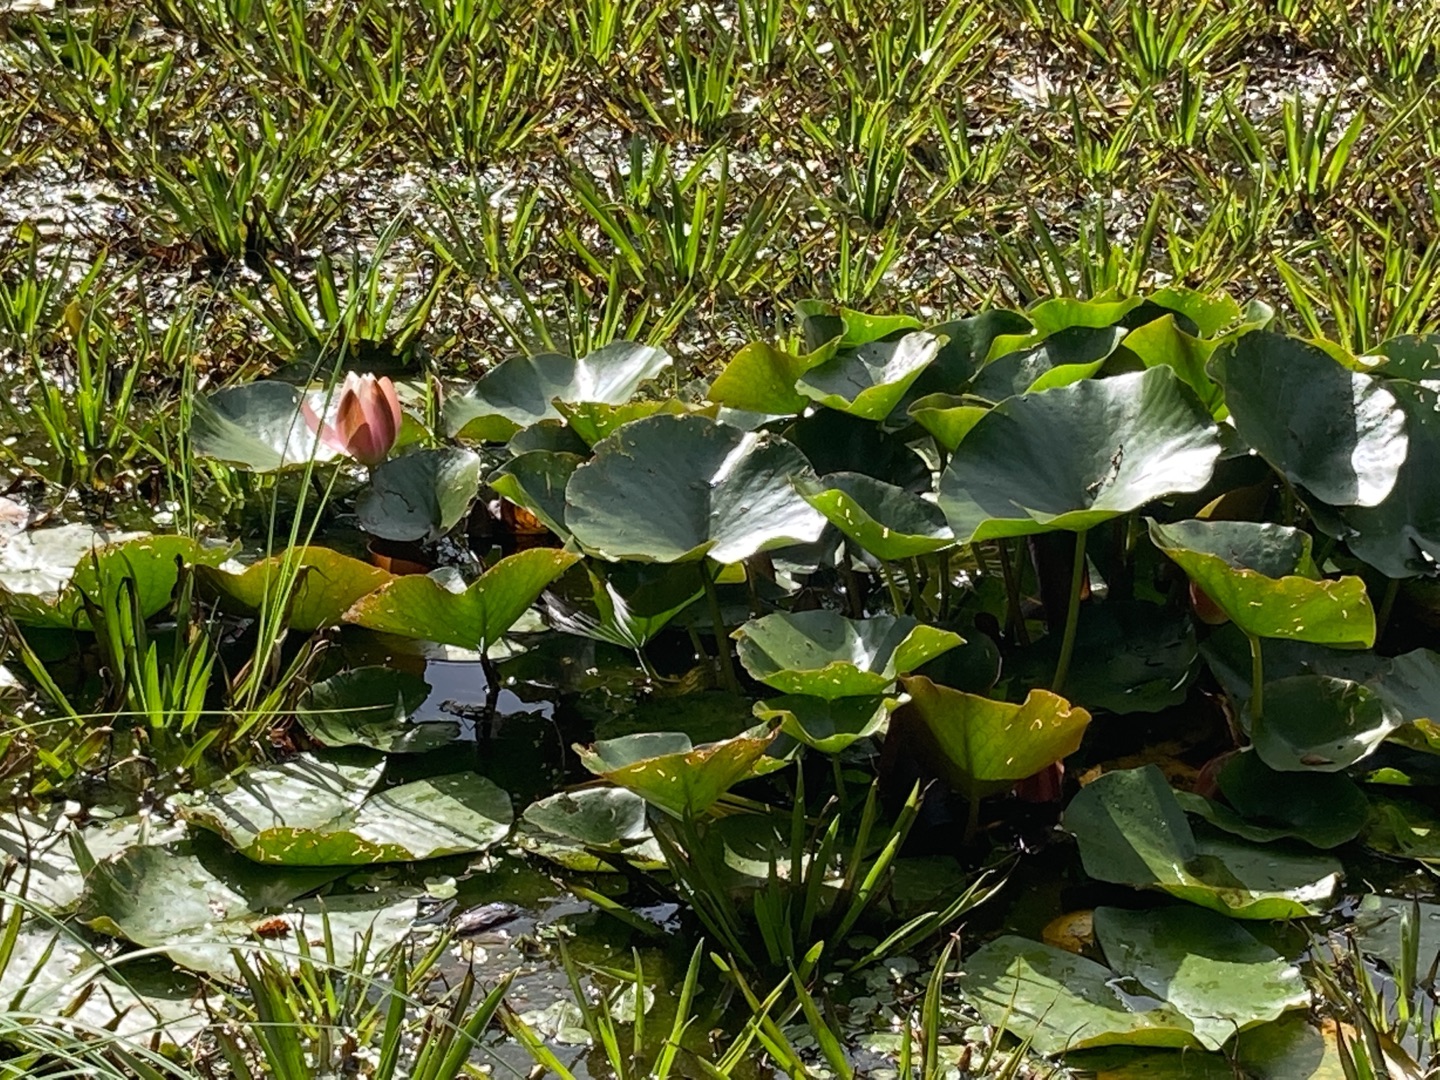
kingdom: Plantae
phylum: Tracheophyta
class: Magnoliopsida
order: Nymphaeales
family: Nymphaeaceae
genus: Nymphaea
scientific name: Nymphaea alba
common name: Hvid åkande
